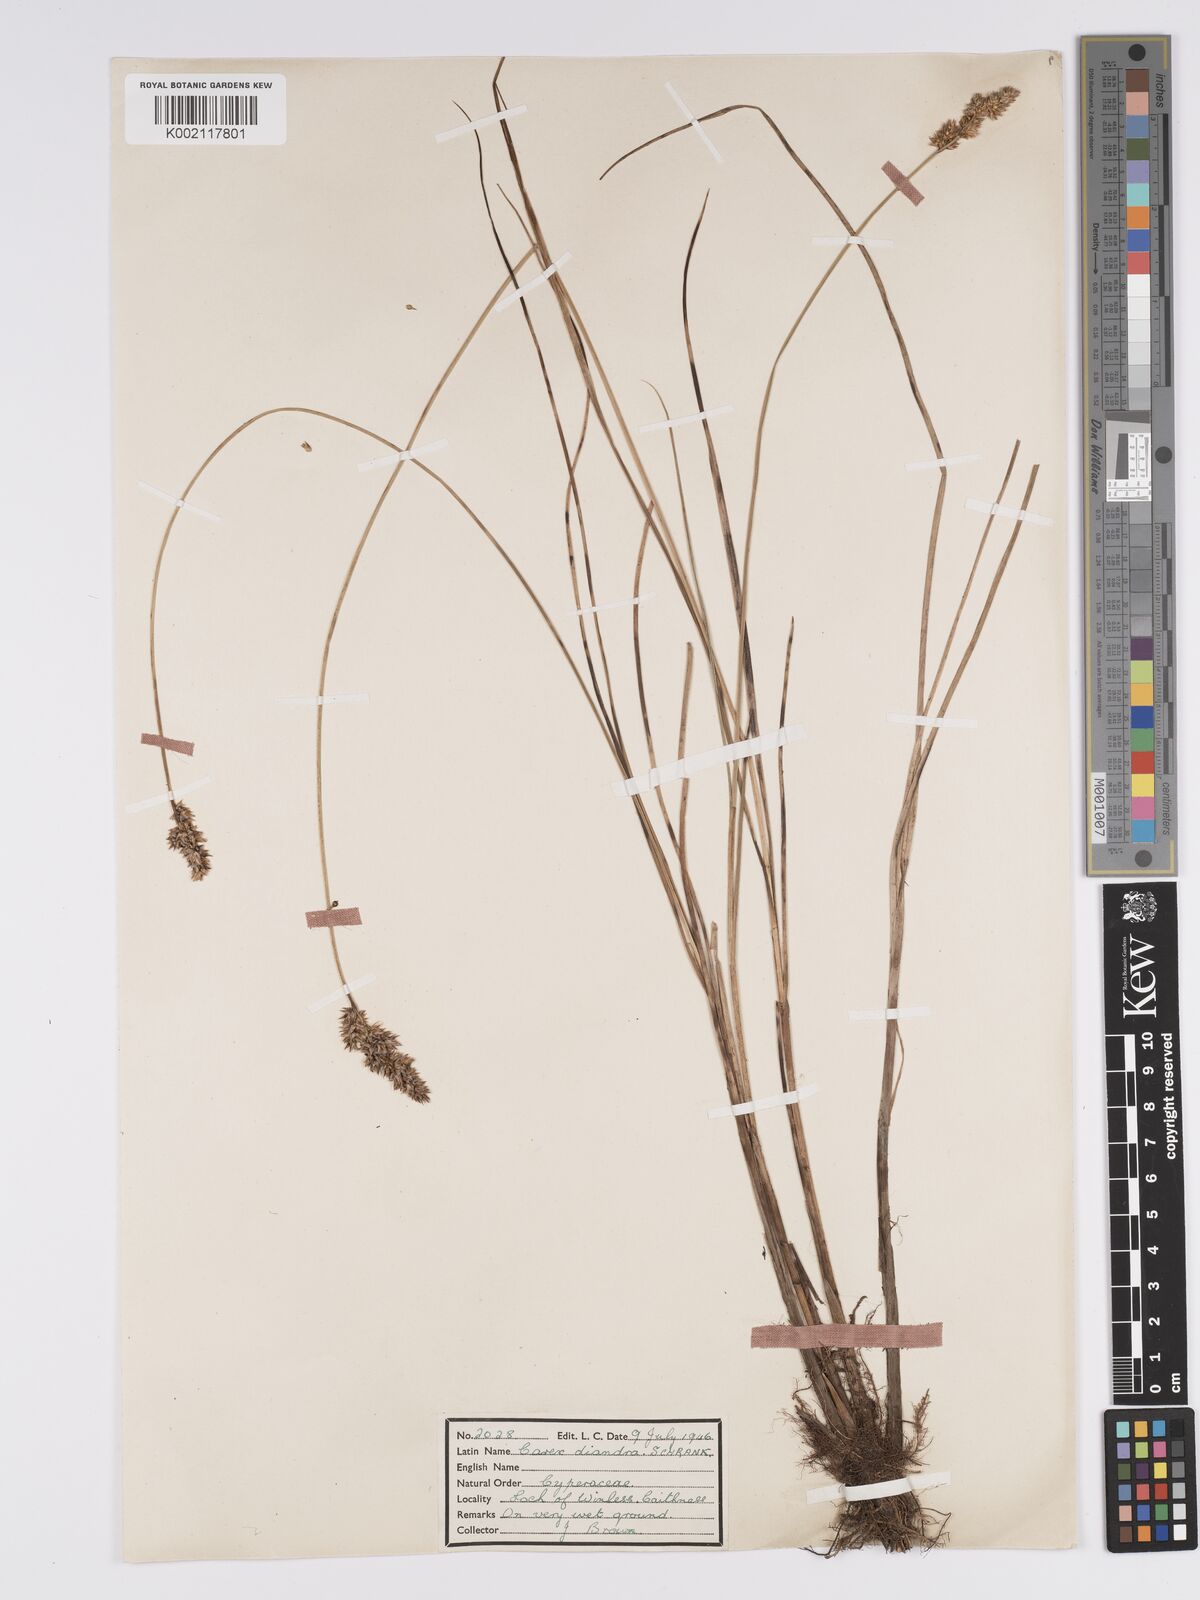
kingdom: Plantae
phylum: Tracheophyta
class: Liliopsida
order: Poales
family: Cyperaceae
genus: Carex
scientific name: Carex diandra
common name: Lesser tussock-sedge
